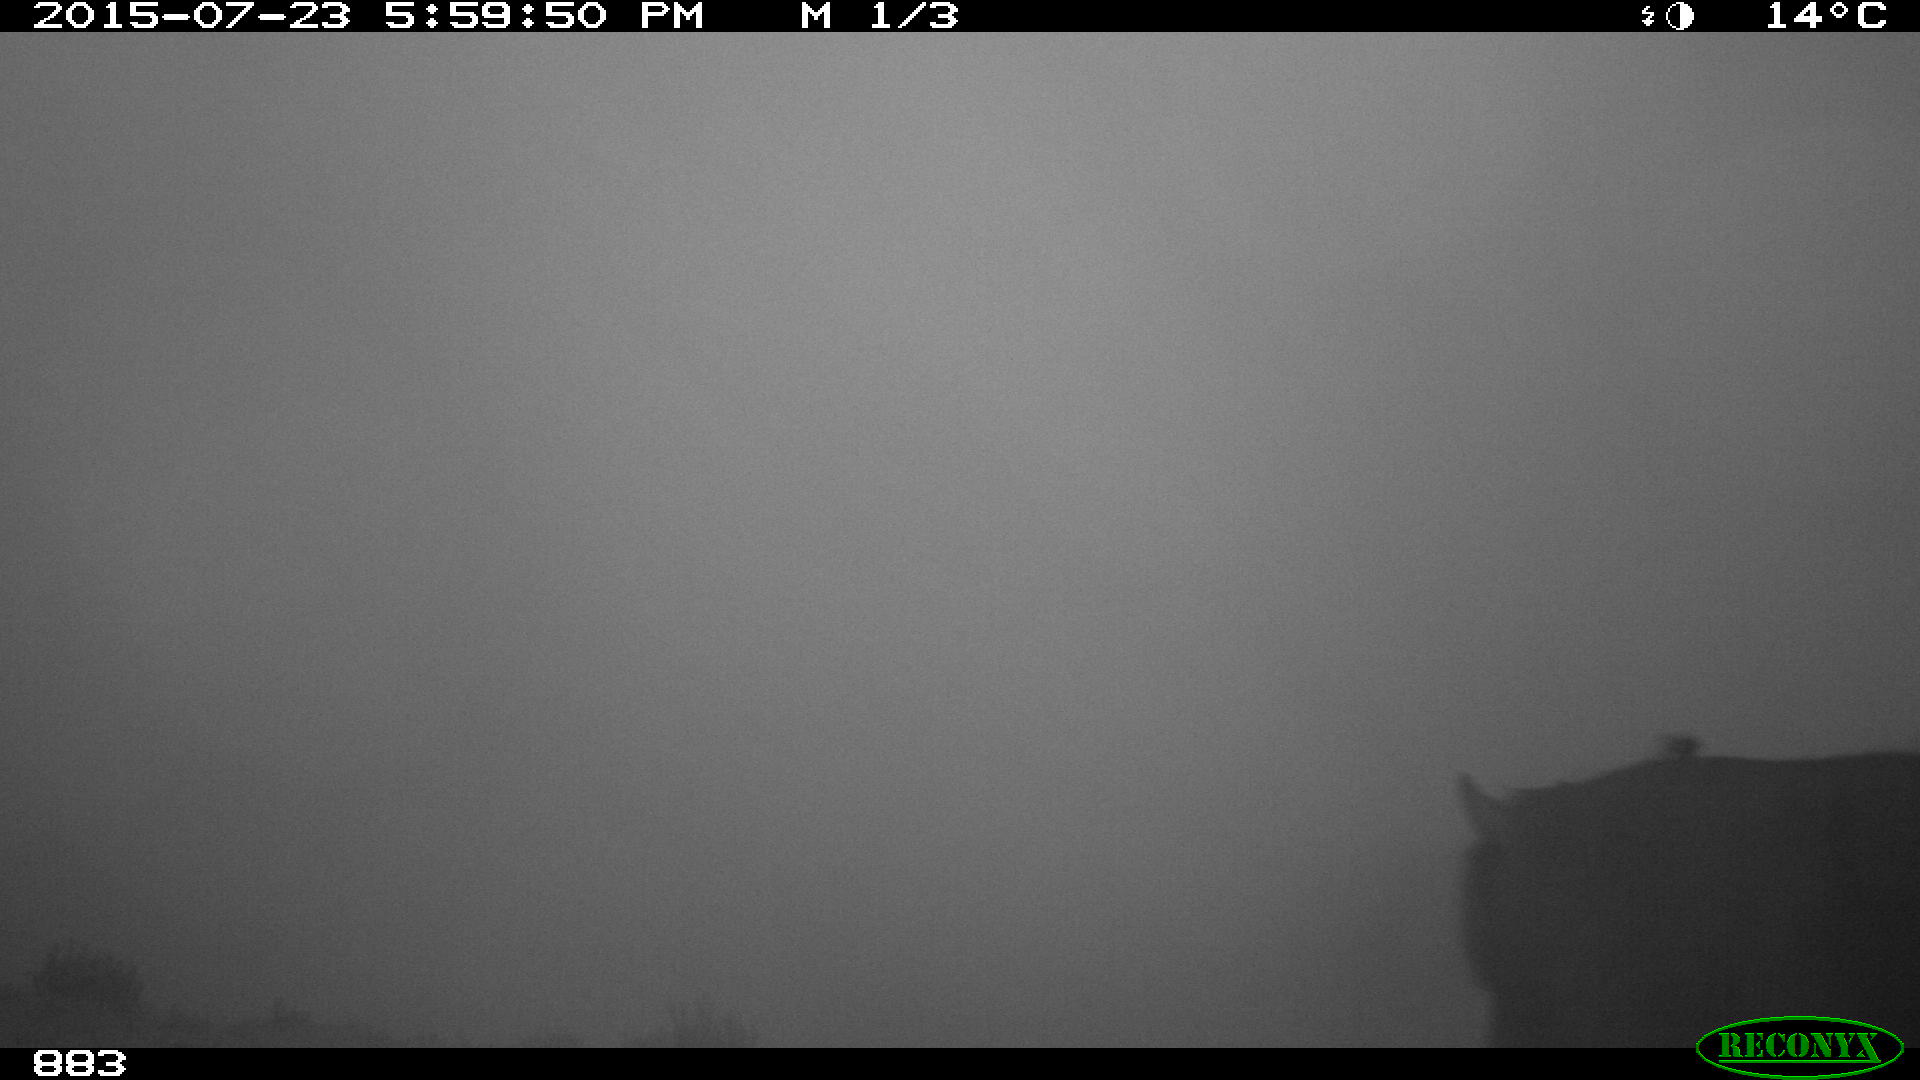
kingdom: Animalia
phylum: Chordata
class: Mammalia
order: Perissodactyla
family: Equidae
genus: Equus
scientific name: Equus caballus
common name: Horse
